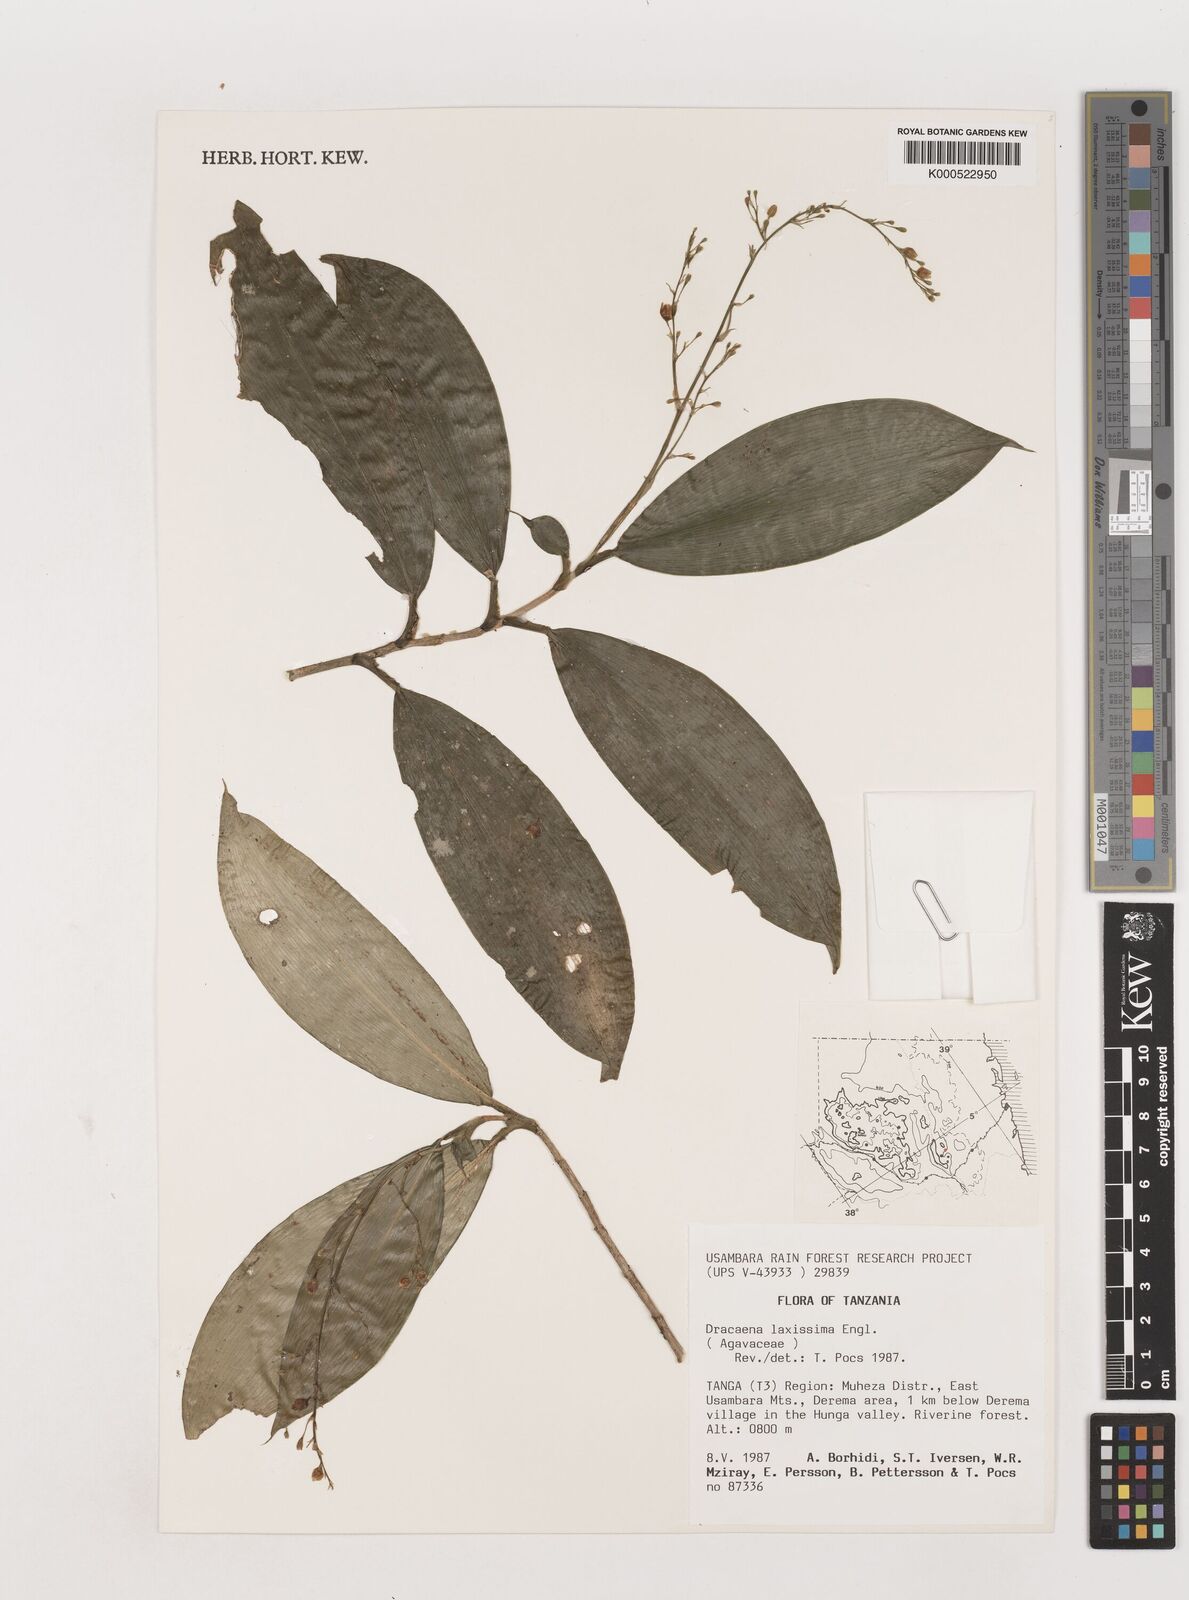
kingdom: Plantae
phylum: Tracheophyta
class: Liliopsida
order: Asparagales
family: Asparagaceae
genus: Dracaena
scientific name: Dracaena laxissima
